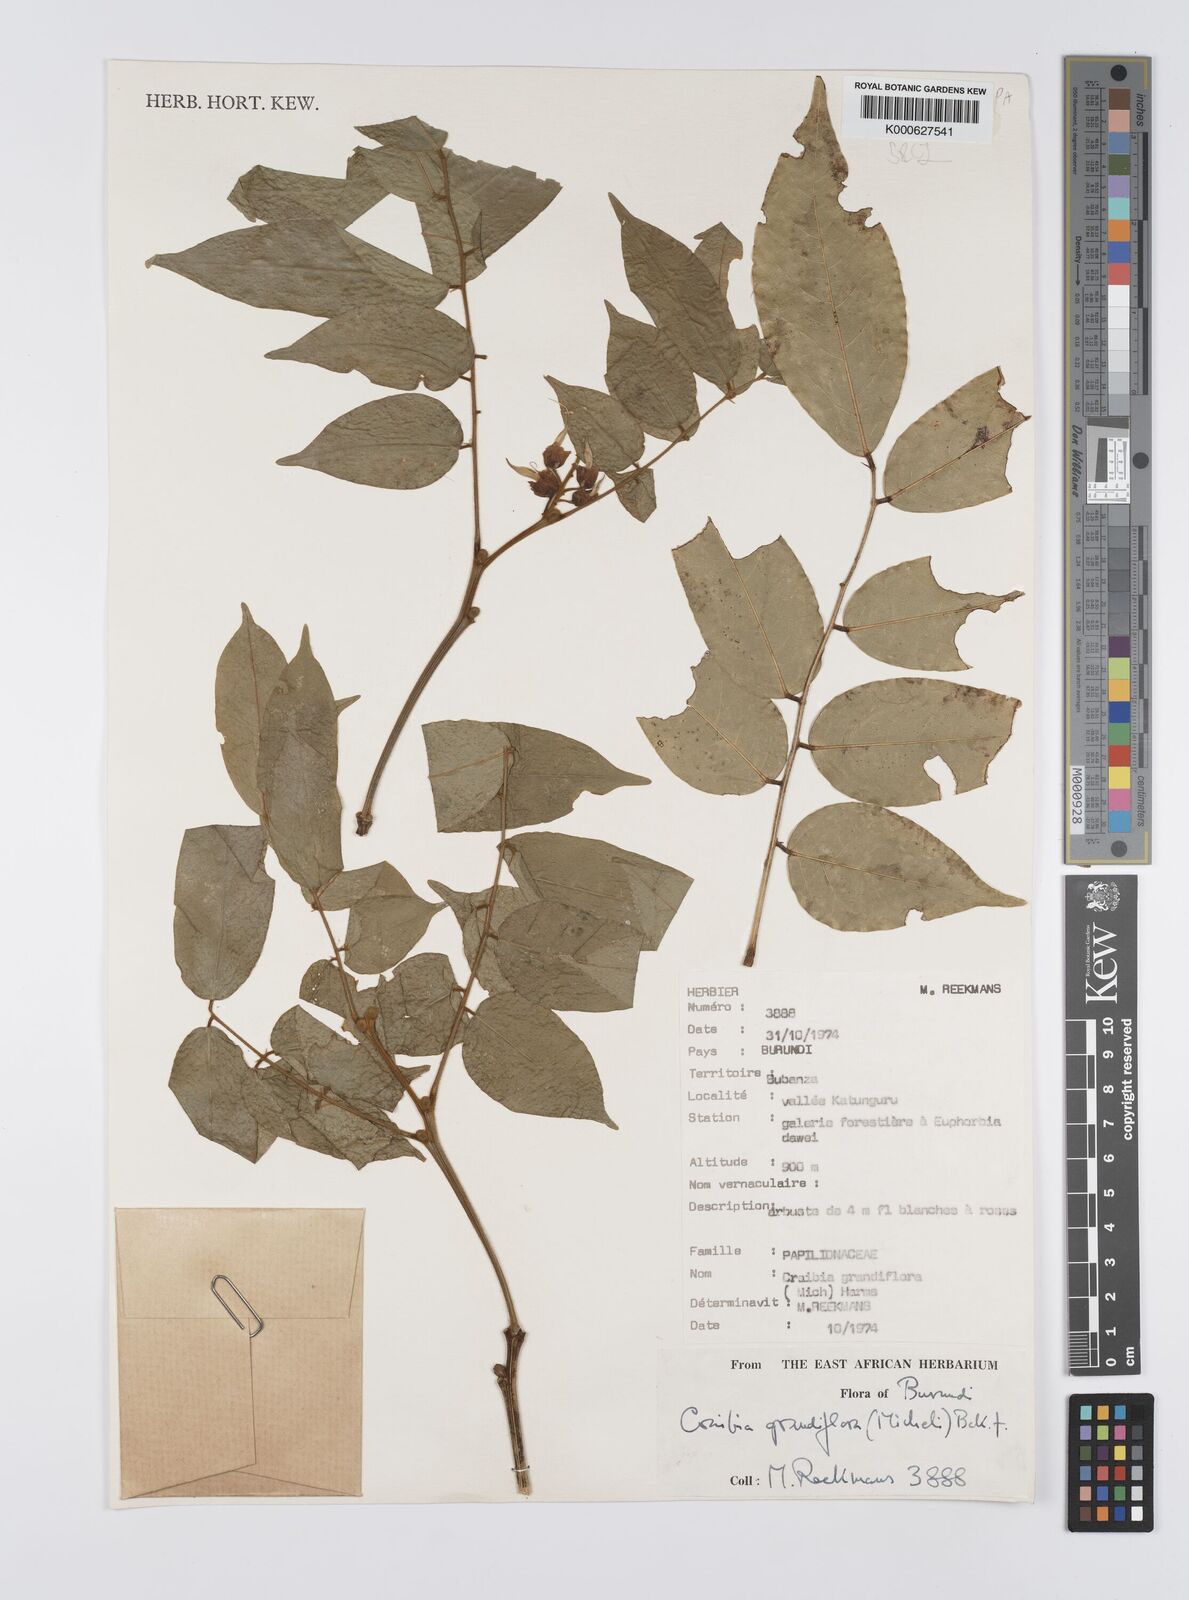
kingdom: Plantae
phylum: Tracheophyta
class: Magnoliopsida
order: Fabales
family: Fabaceae
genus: Craibia
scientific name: Craibia grandiflora
